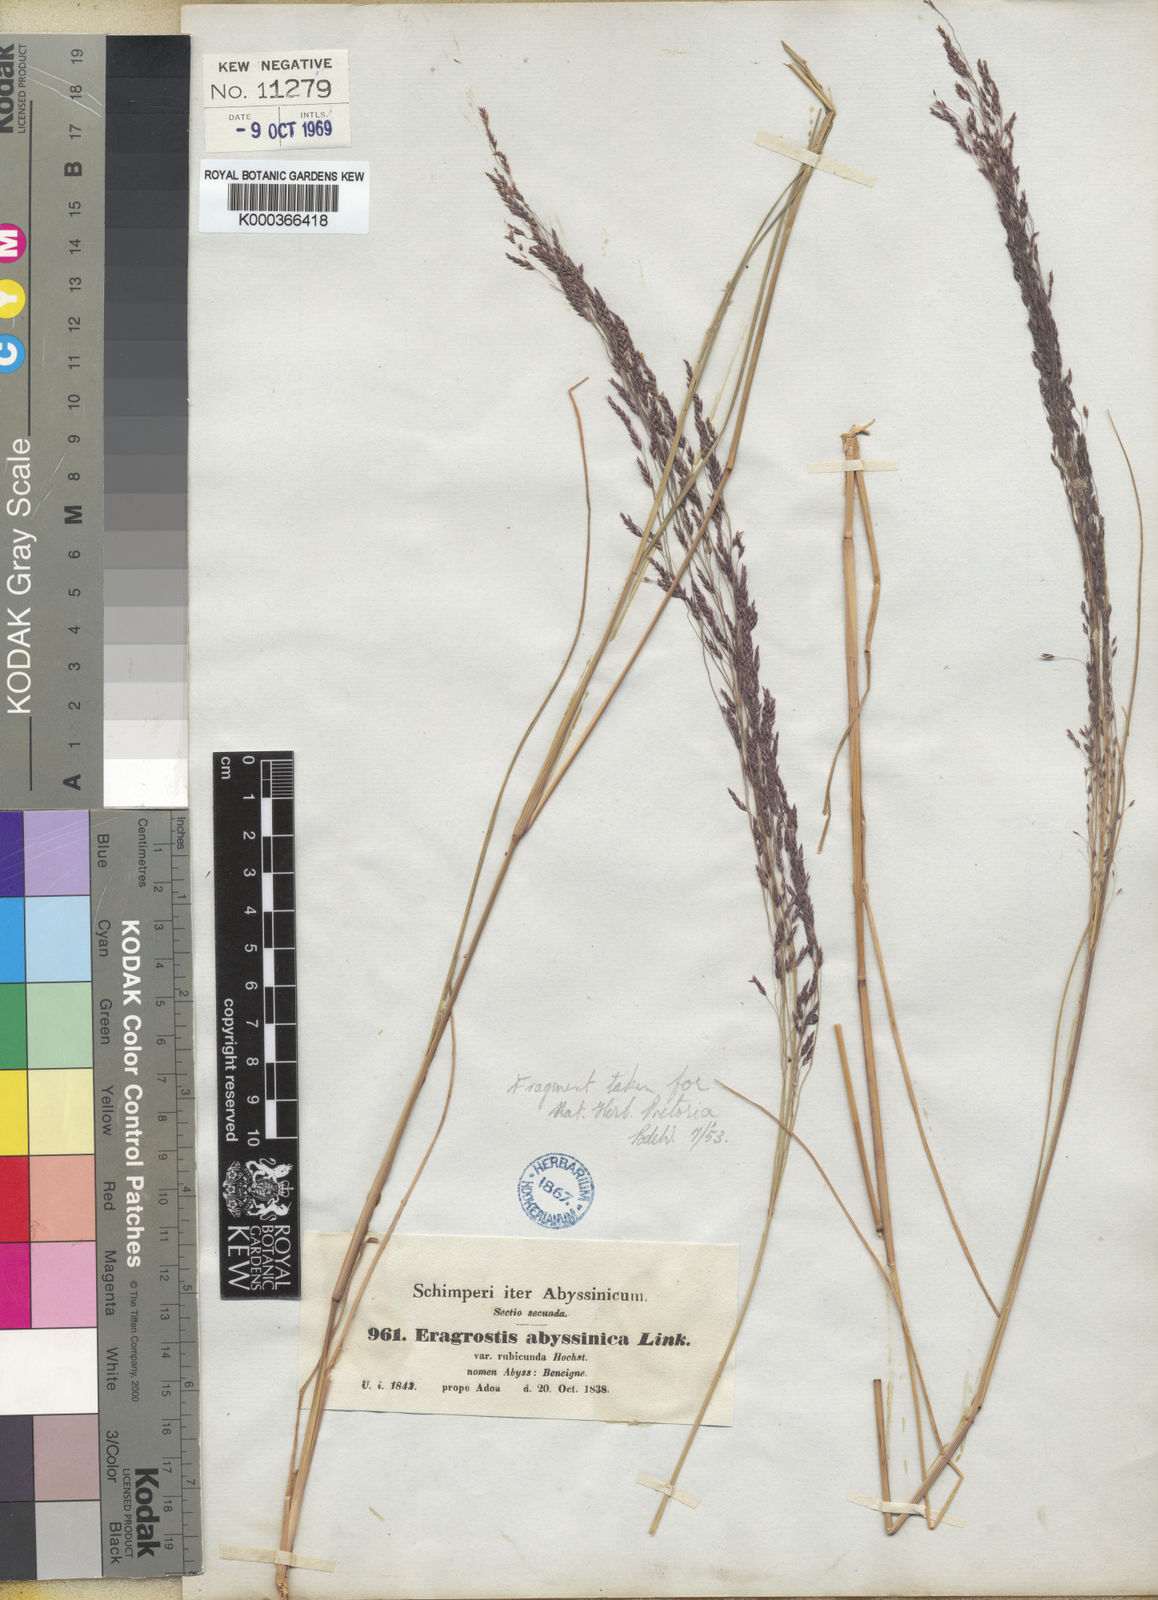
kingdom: Plantae
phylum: Tracheophyta
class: Liliopsida
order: Poales
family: Poaceae
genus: Eragrostis
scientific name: Eragrostis tef
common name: Teff
